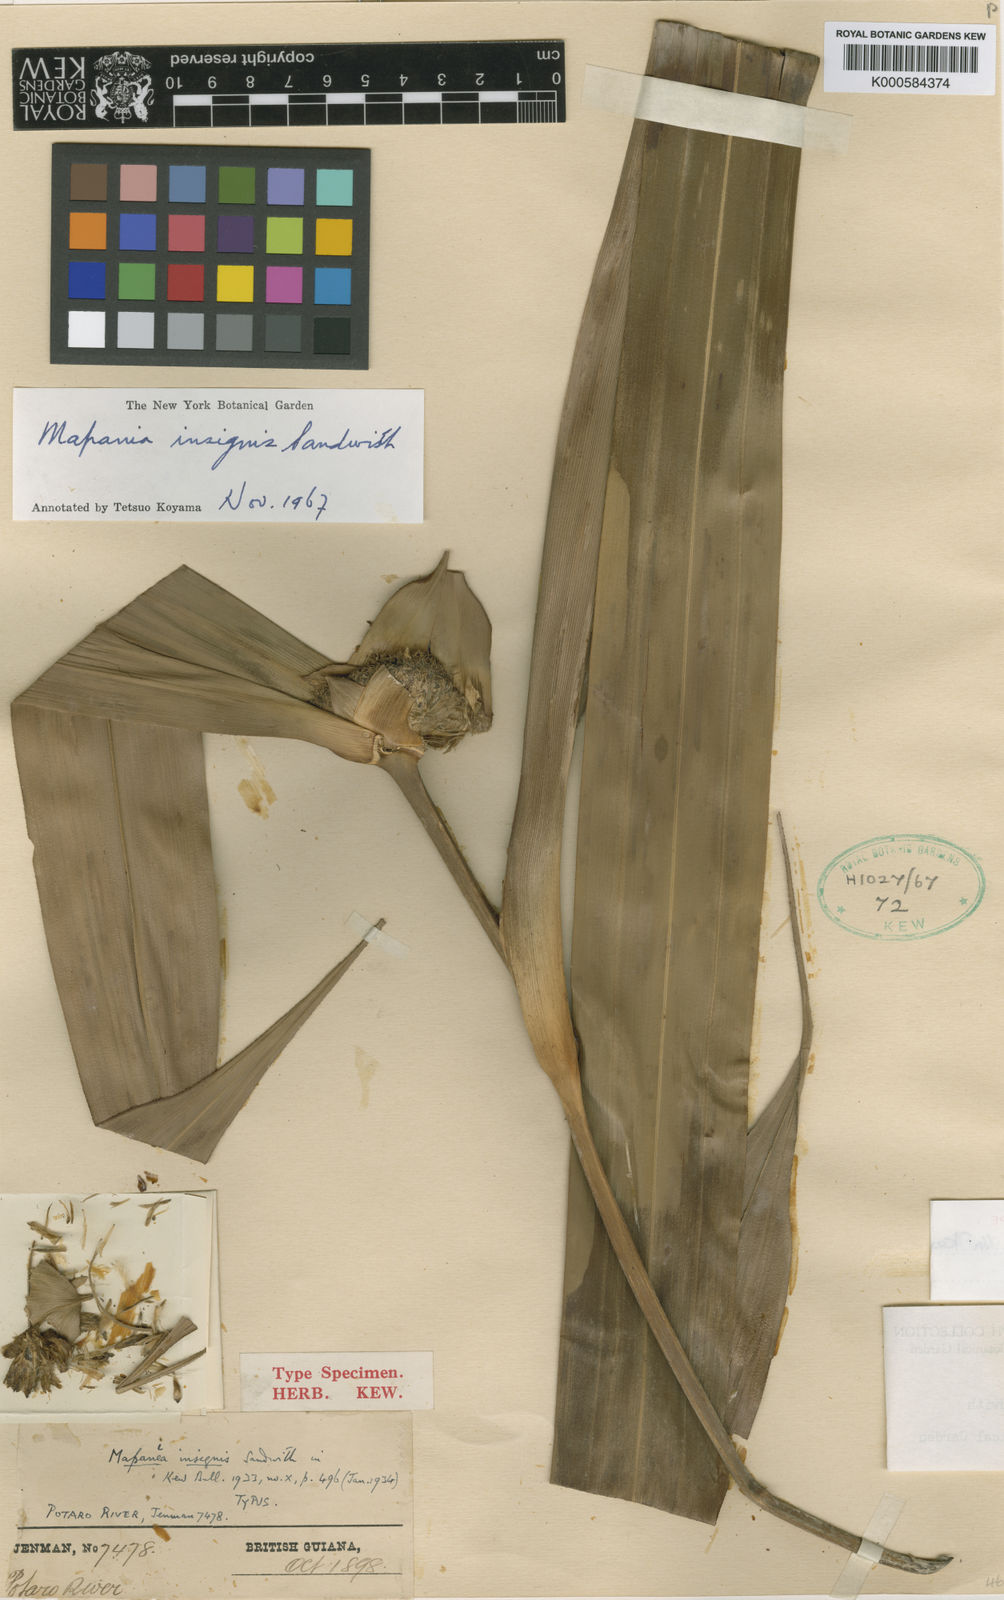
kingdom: Plantae
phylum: Tracheophyta
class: Liliopsida
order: Poales
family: Cyperaceae
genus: Mapania
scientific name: Mapania insignis
